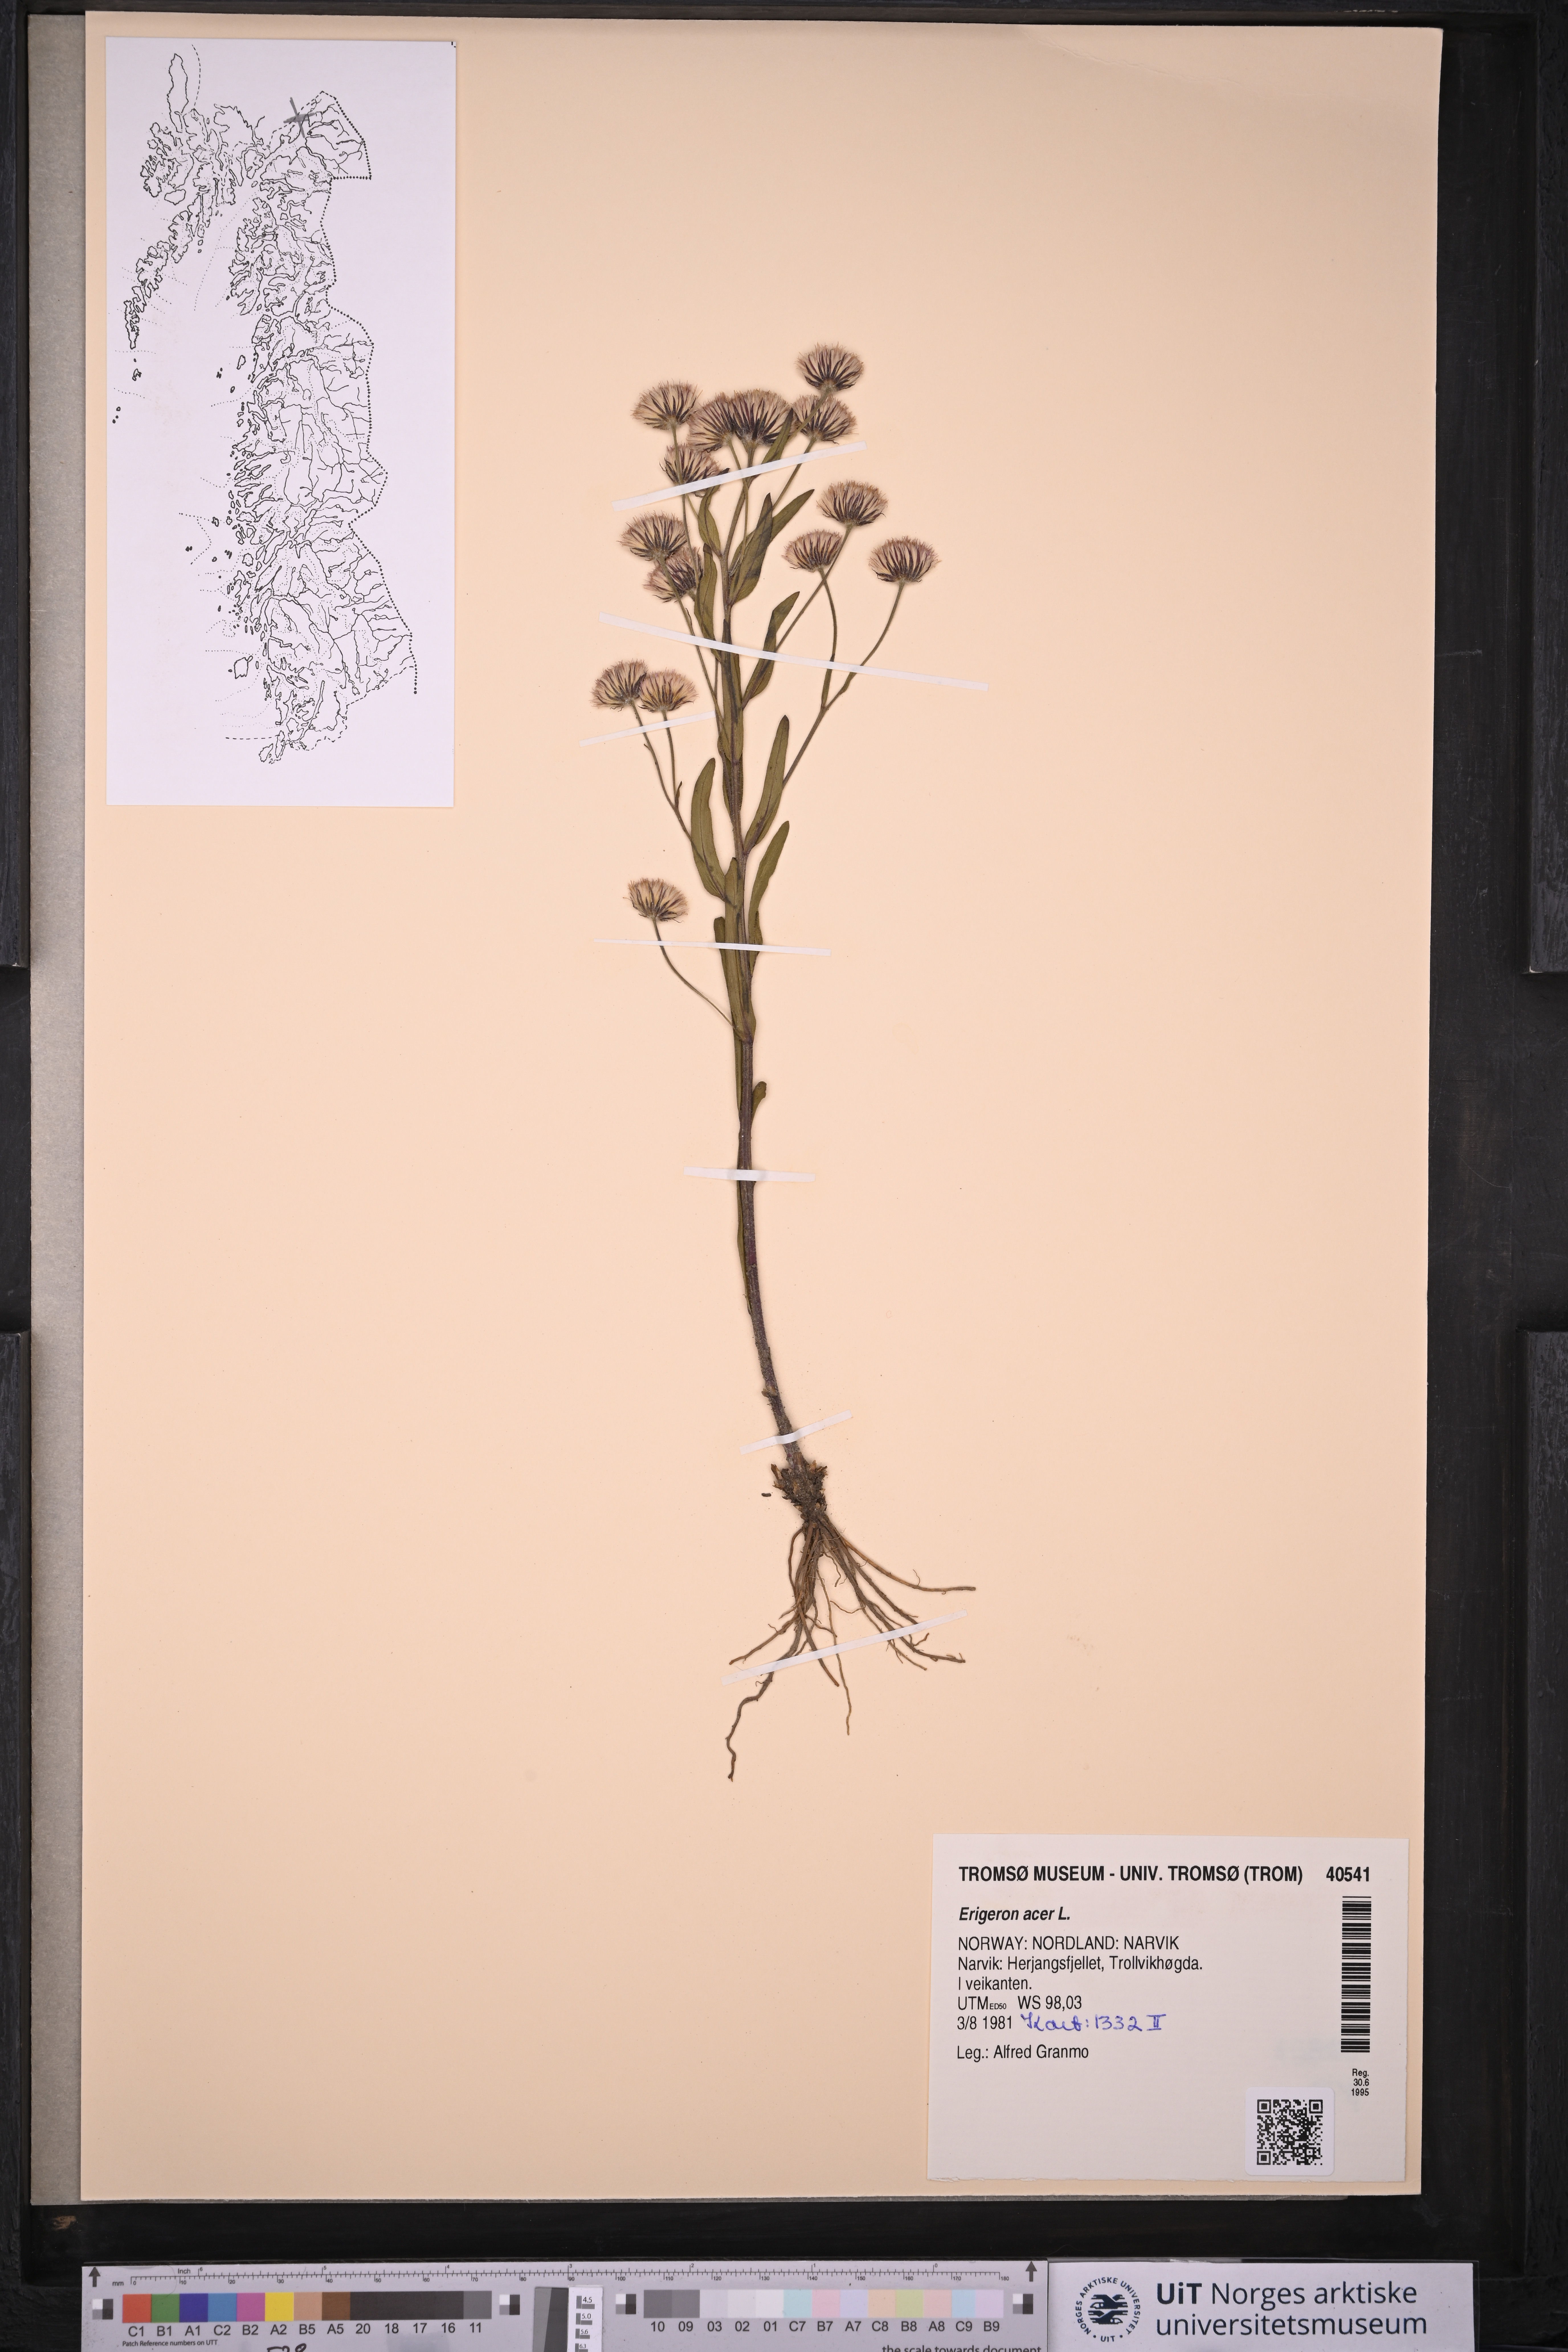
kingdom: Plantae
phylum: Tracheophyta
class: Magnoliopsida
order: Asterales
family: Asteraceae
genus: Erigeron
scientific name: Erigeron acris
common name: Blue fleabane
